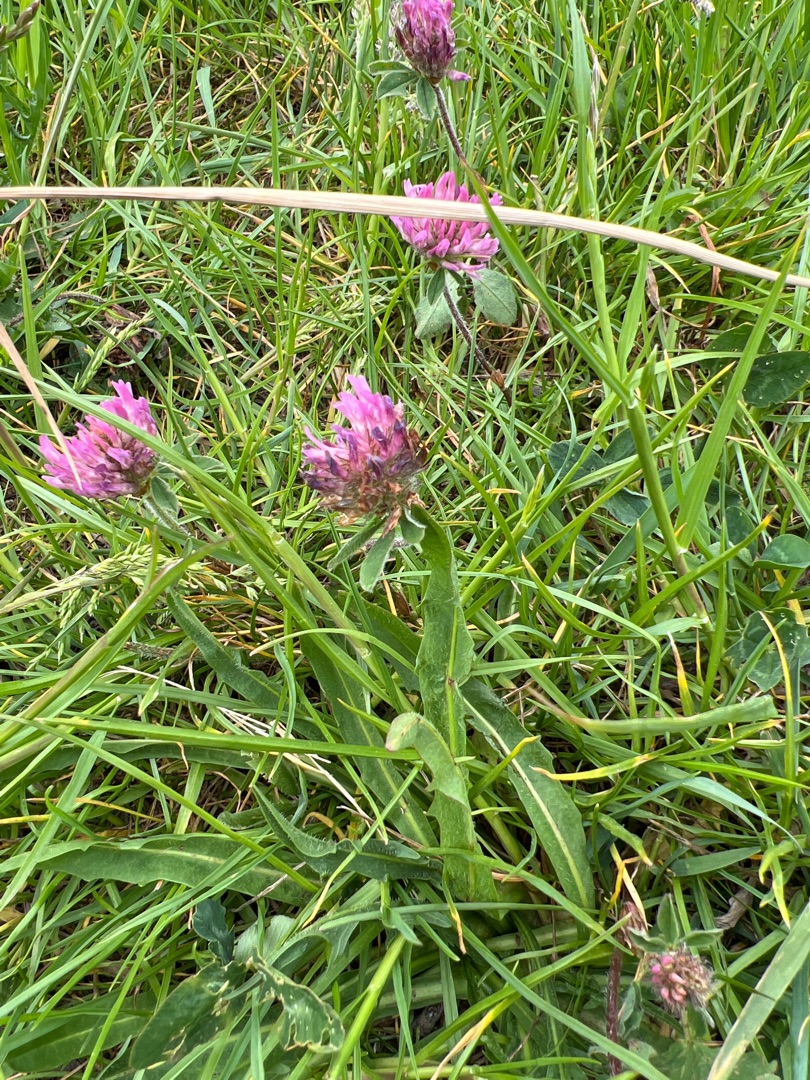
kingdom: Plantae
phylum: Tracheophyta
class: Magnoliopsida
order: Fabales
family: Fabaceae
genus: Trifolium
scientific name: Trifolium pratense
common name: Rød-kløver
